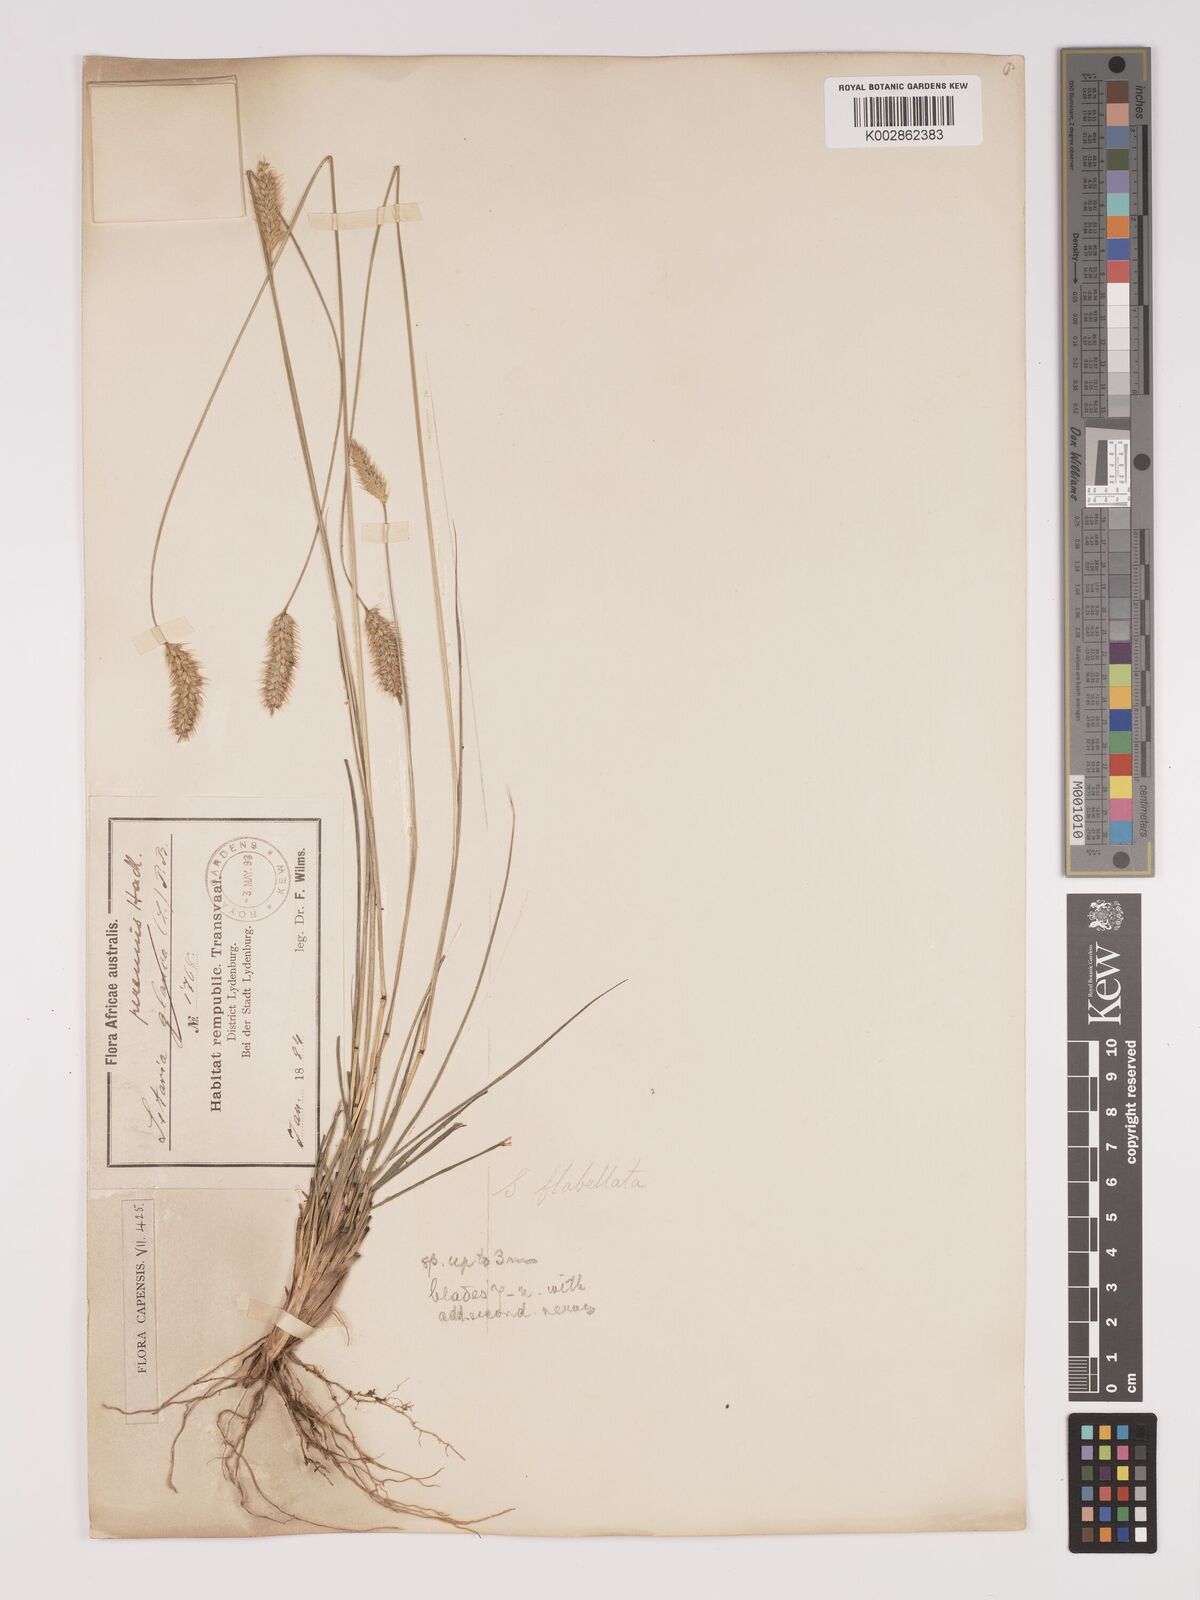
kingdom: Plantae
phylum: Tracheophyta
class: Liliopsida
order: Poales
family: Poaceae
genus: Setaria
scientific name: Setaria sphacelata
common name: African bristlegrass
